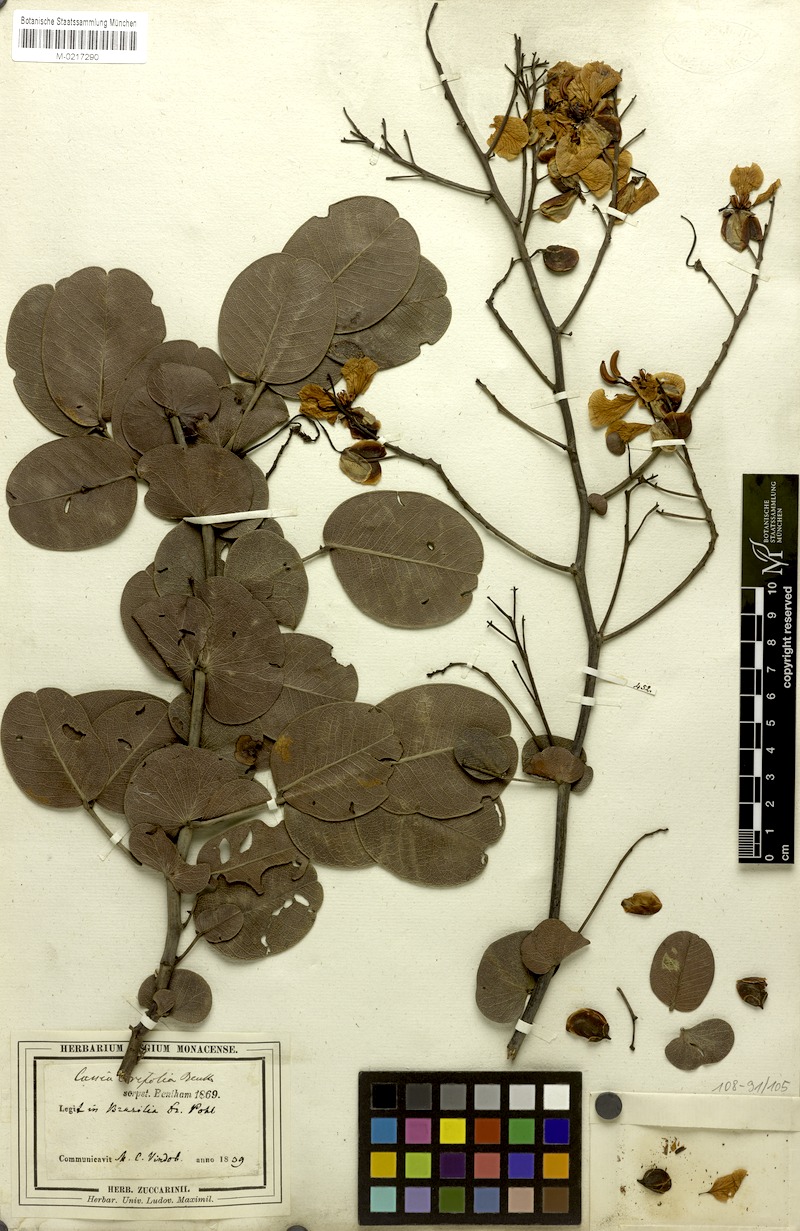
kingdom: Plantae
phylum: Tracheophyta
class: Magnoliopsida
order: Fabales
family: Fabaceae
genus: Senna
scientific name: Senna corifolia
